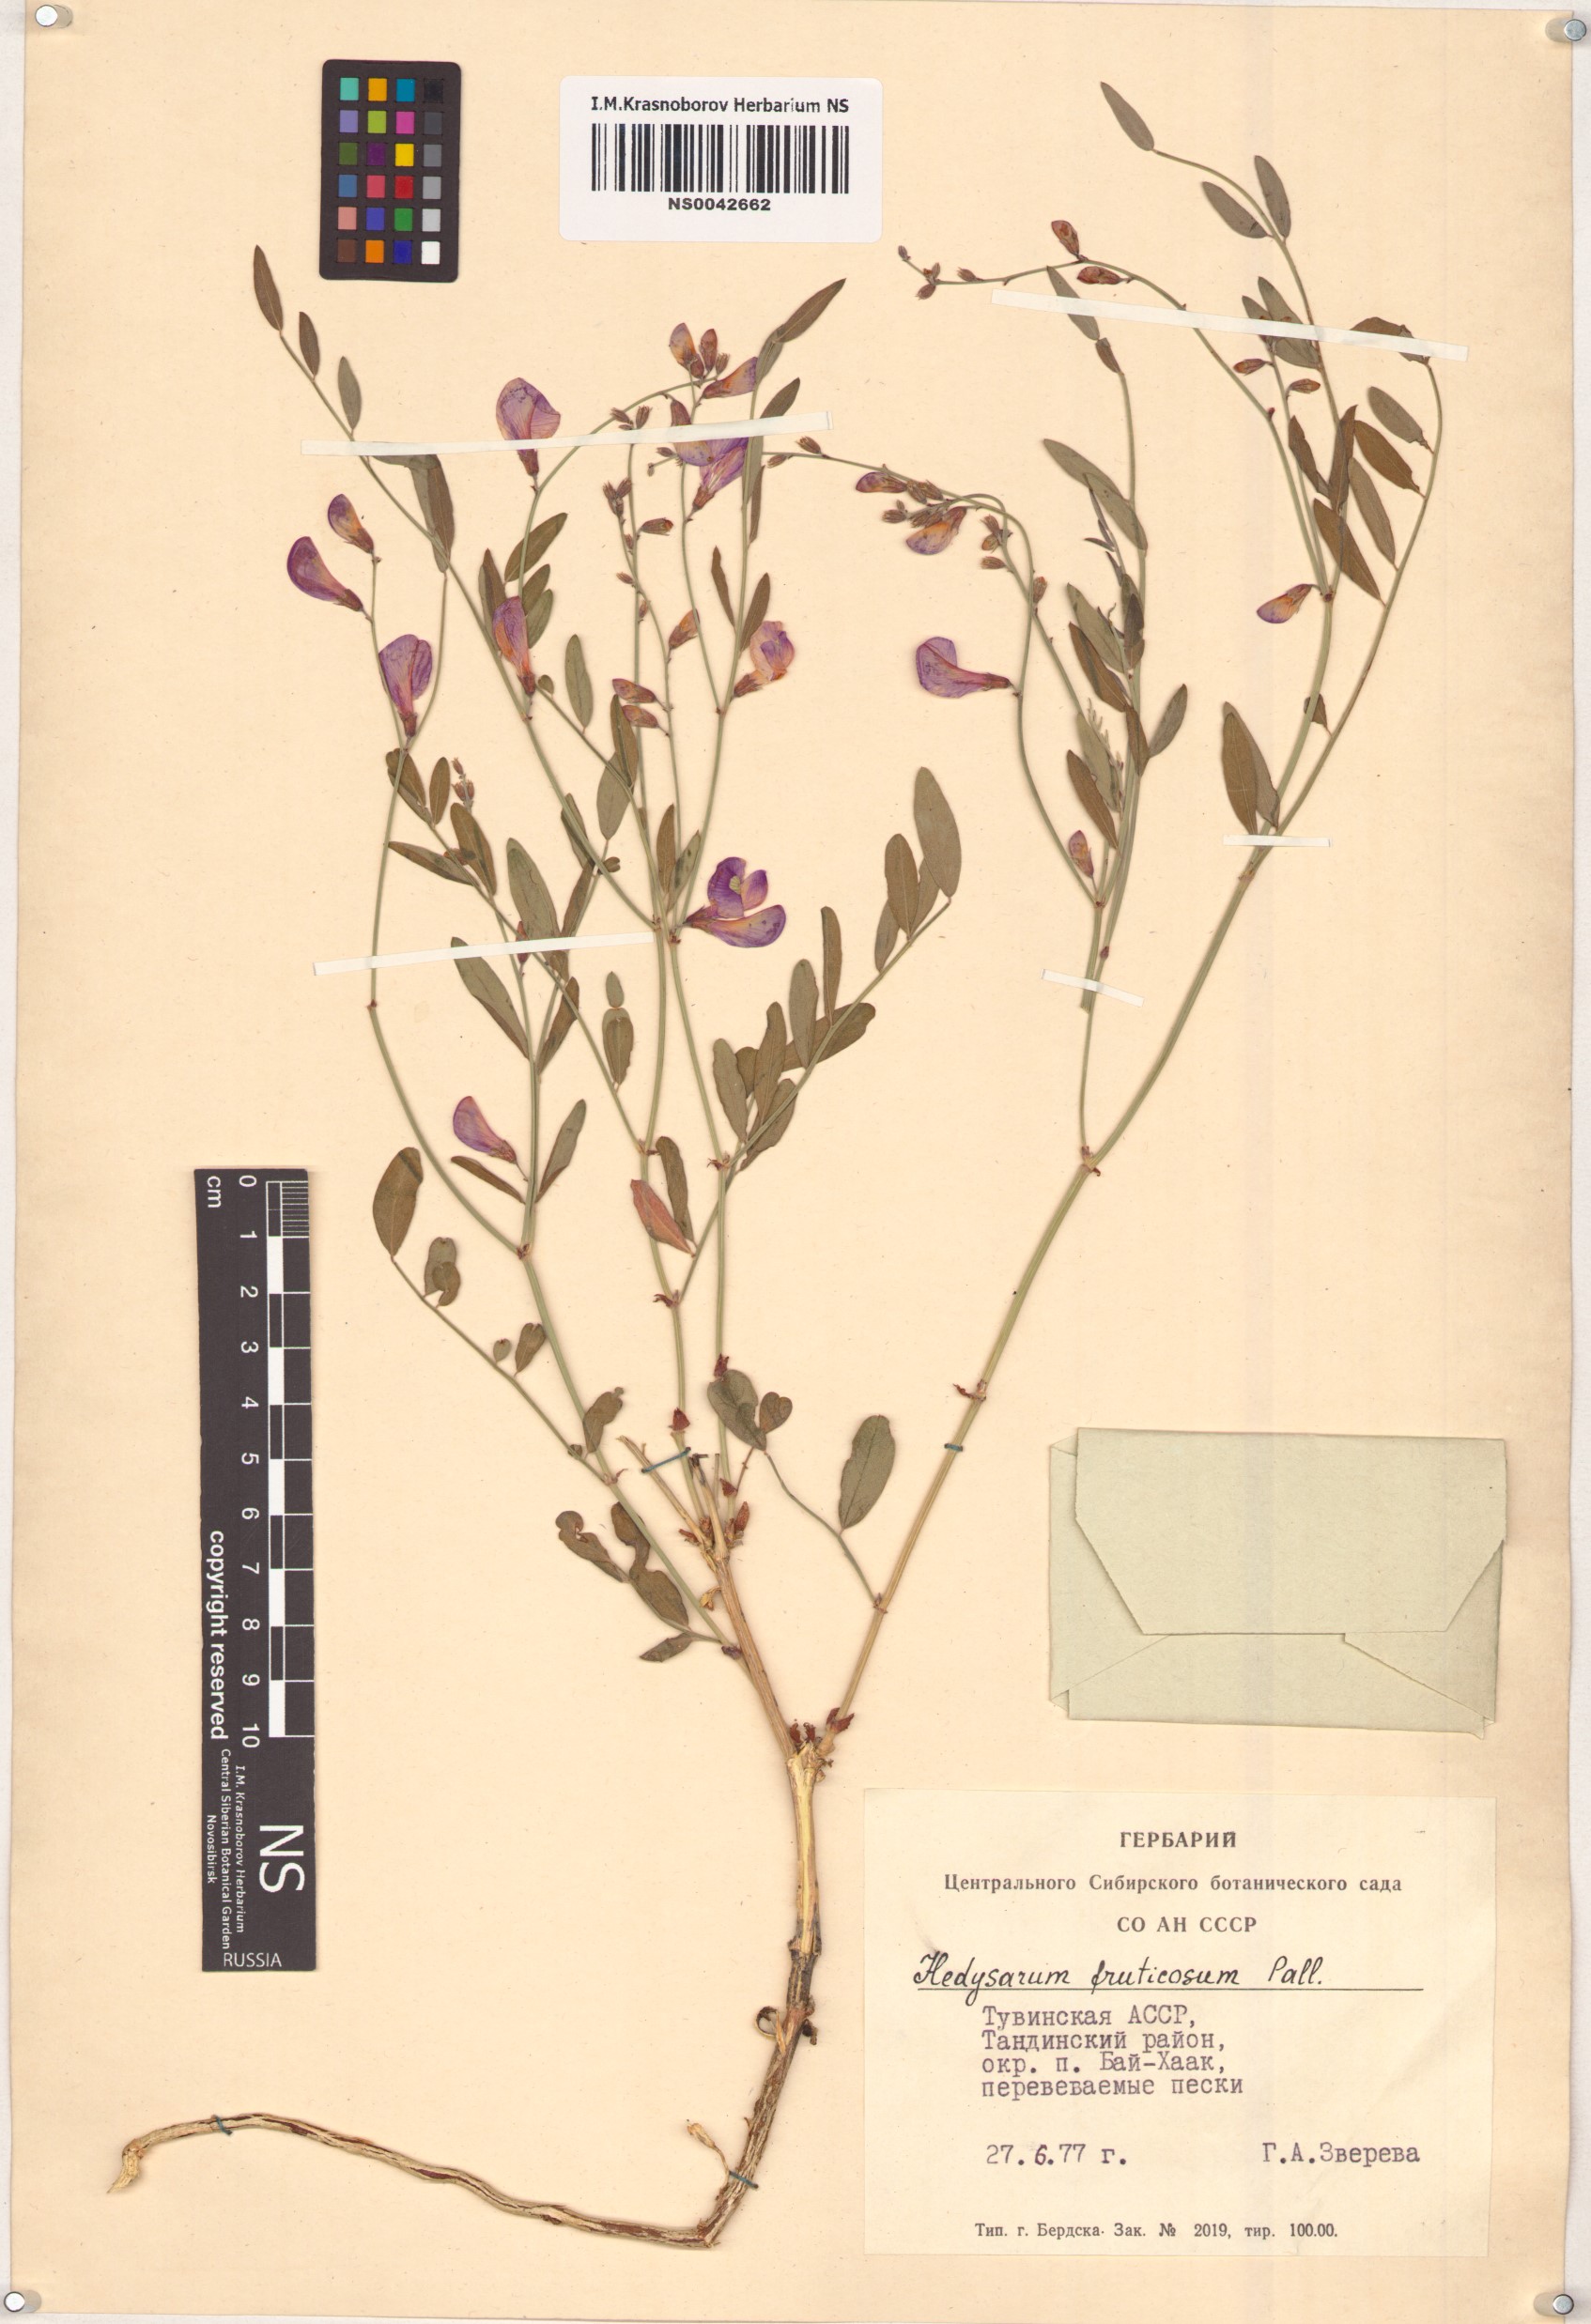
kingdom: Plantae
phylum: Tracheophyta
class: Magnoliopsida
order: Fabales
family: Fabaceae
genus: Corethrodendron
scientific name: Corethrodendron fruticosum
